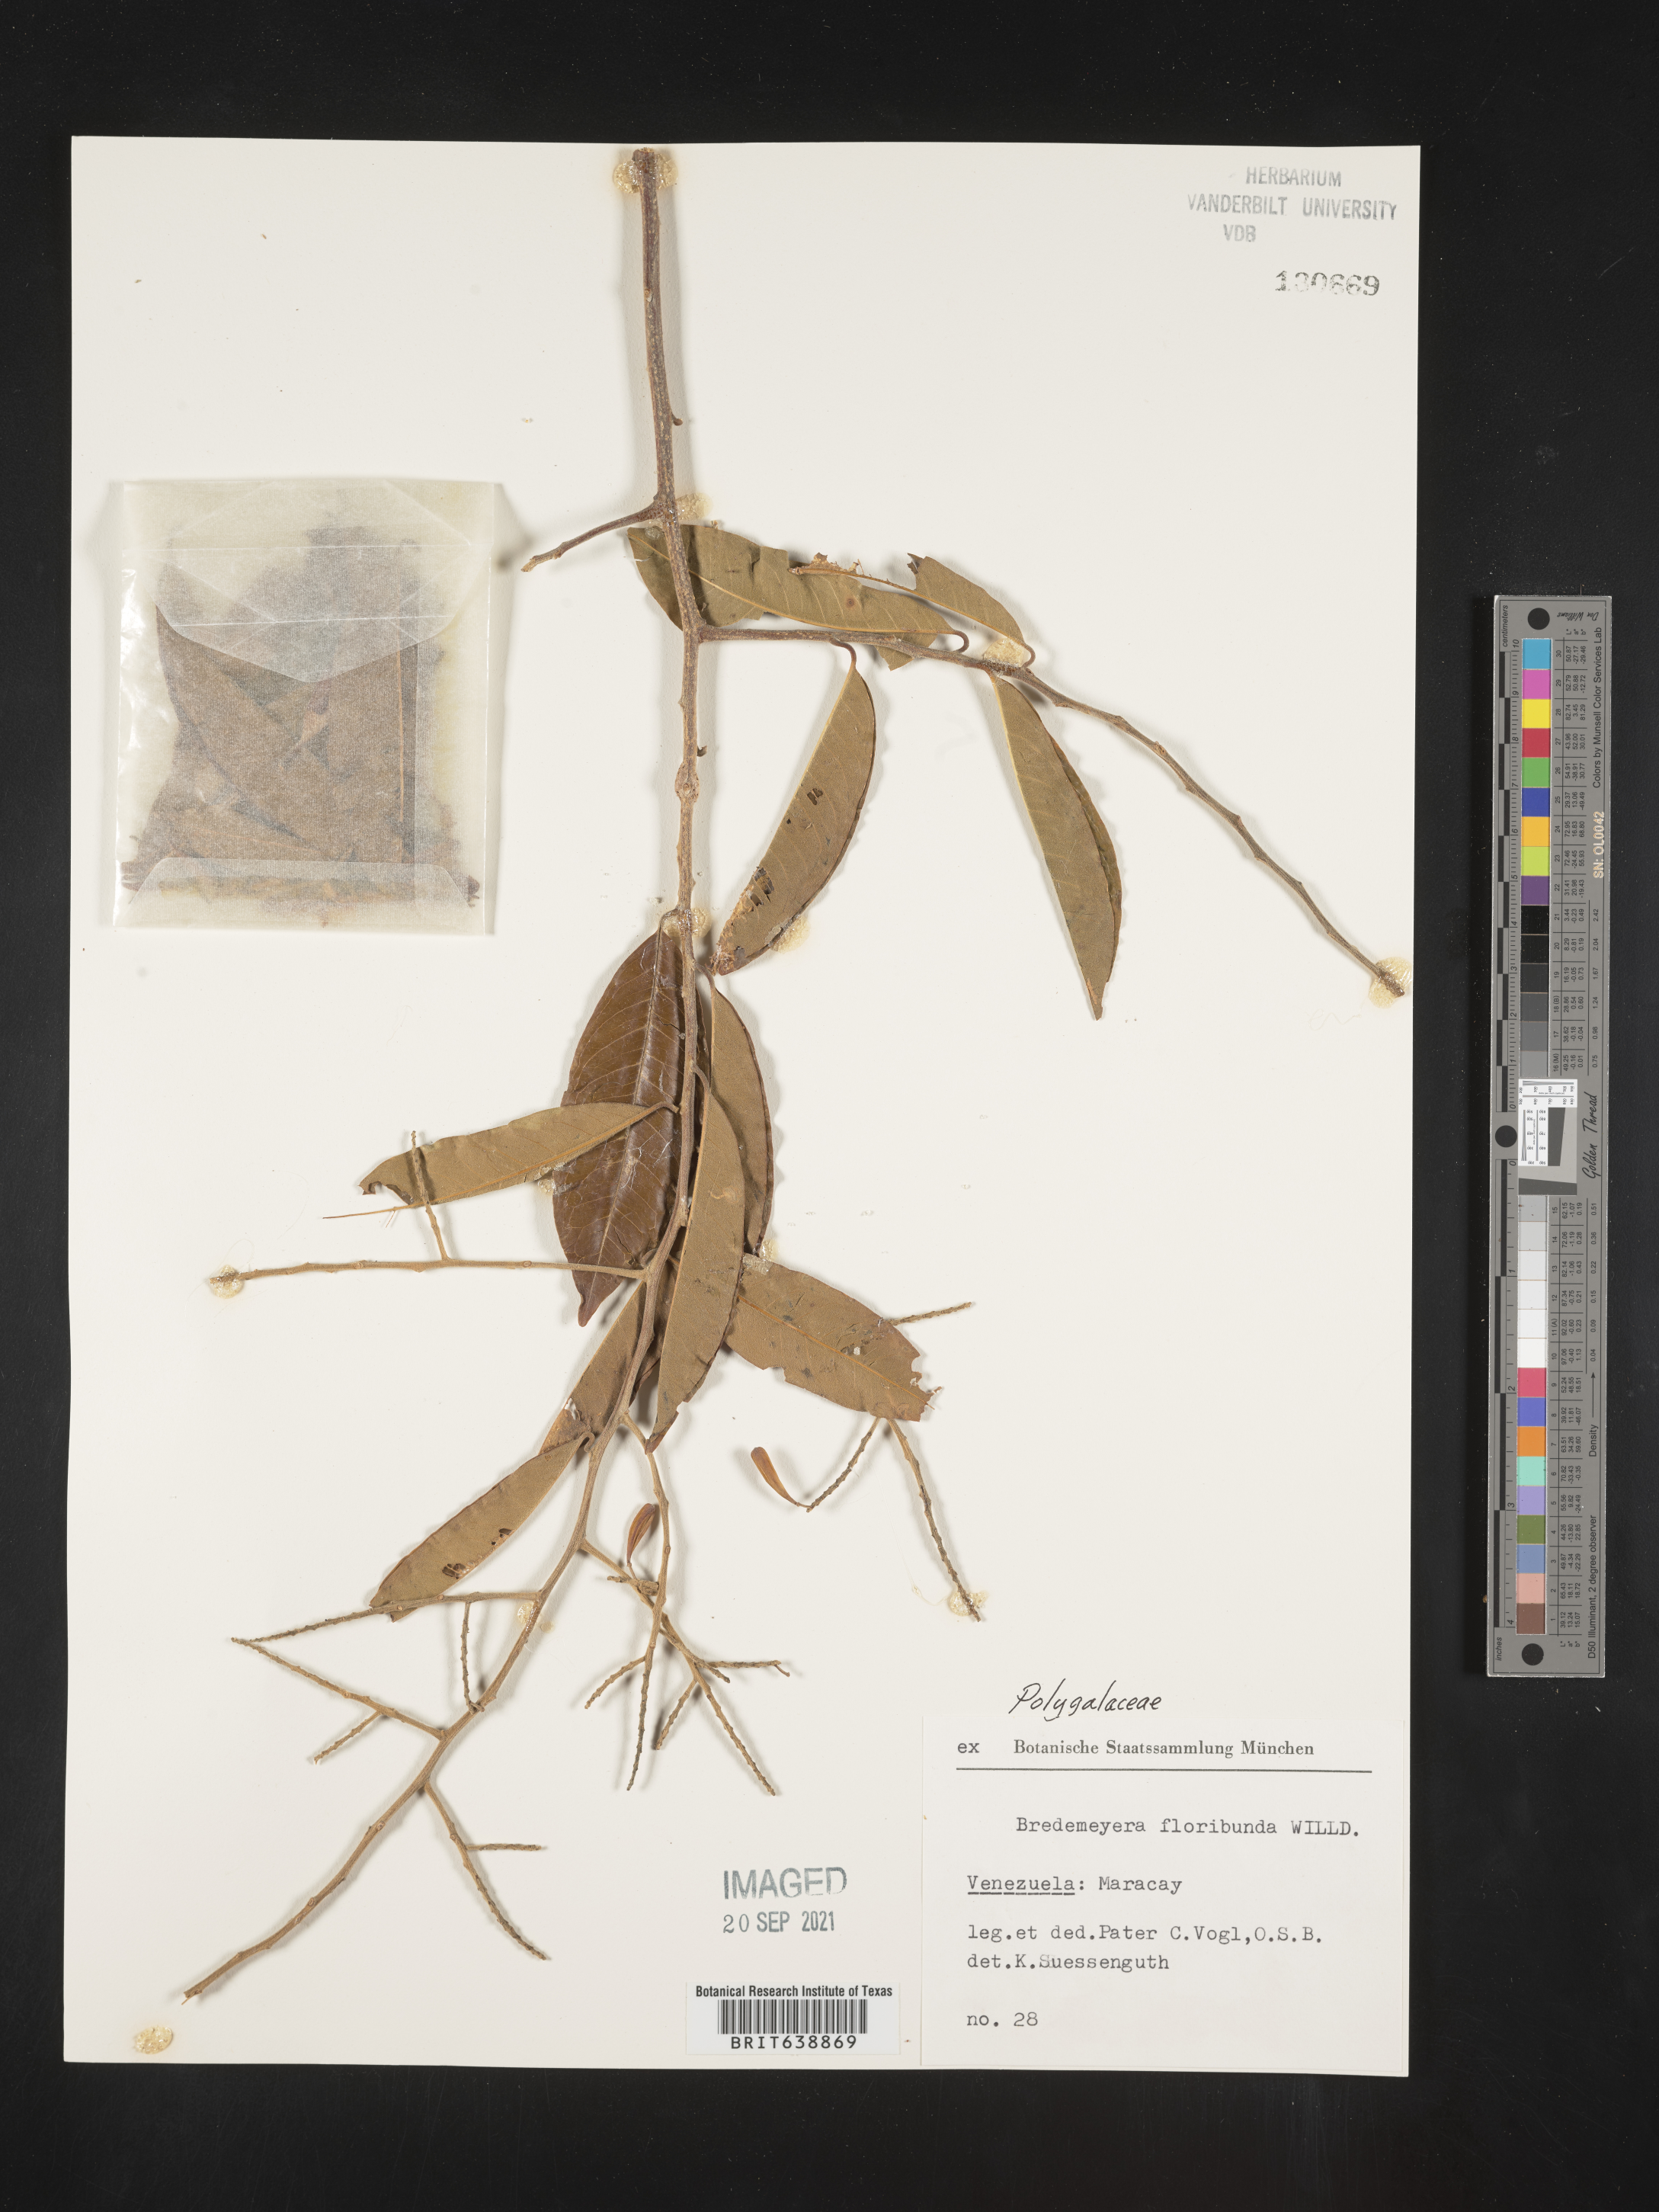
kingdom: Plantae
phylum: Tracheophyta
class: Magnoliopsida
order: Fabales
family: Polygalaceae
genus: Bredemeyera
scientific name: Bredemeyera
